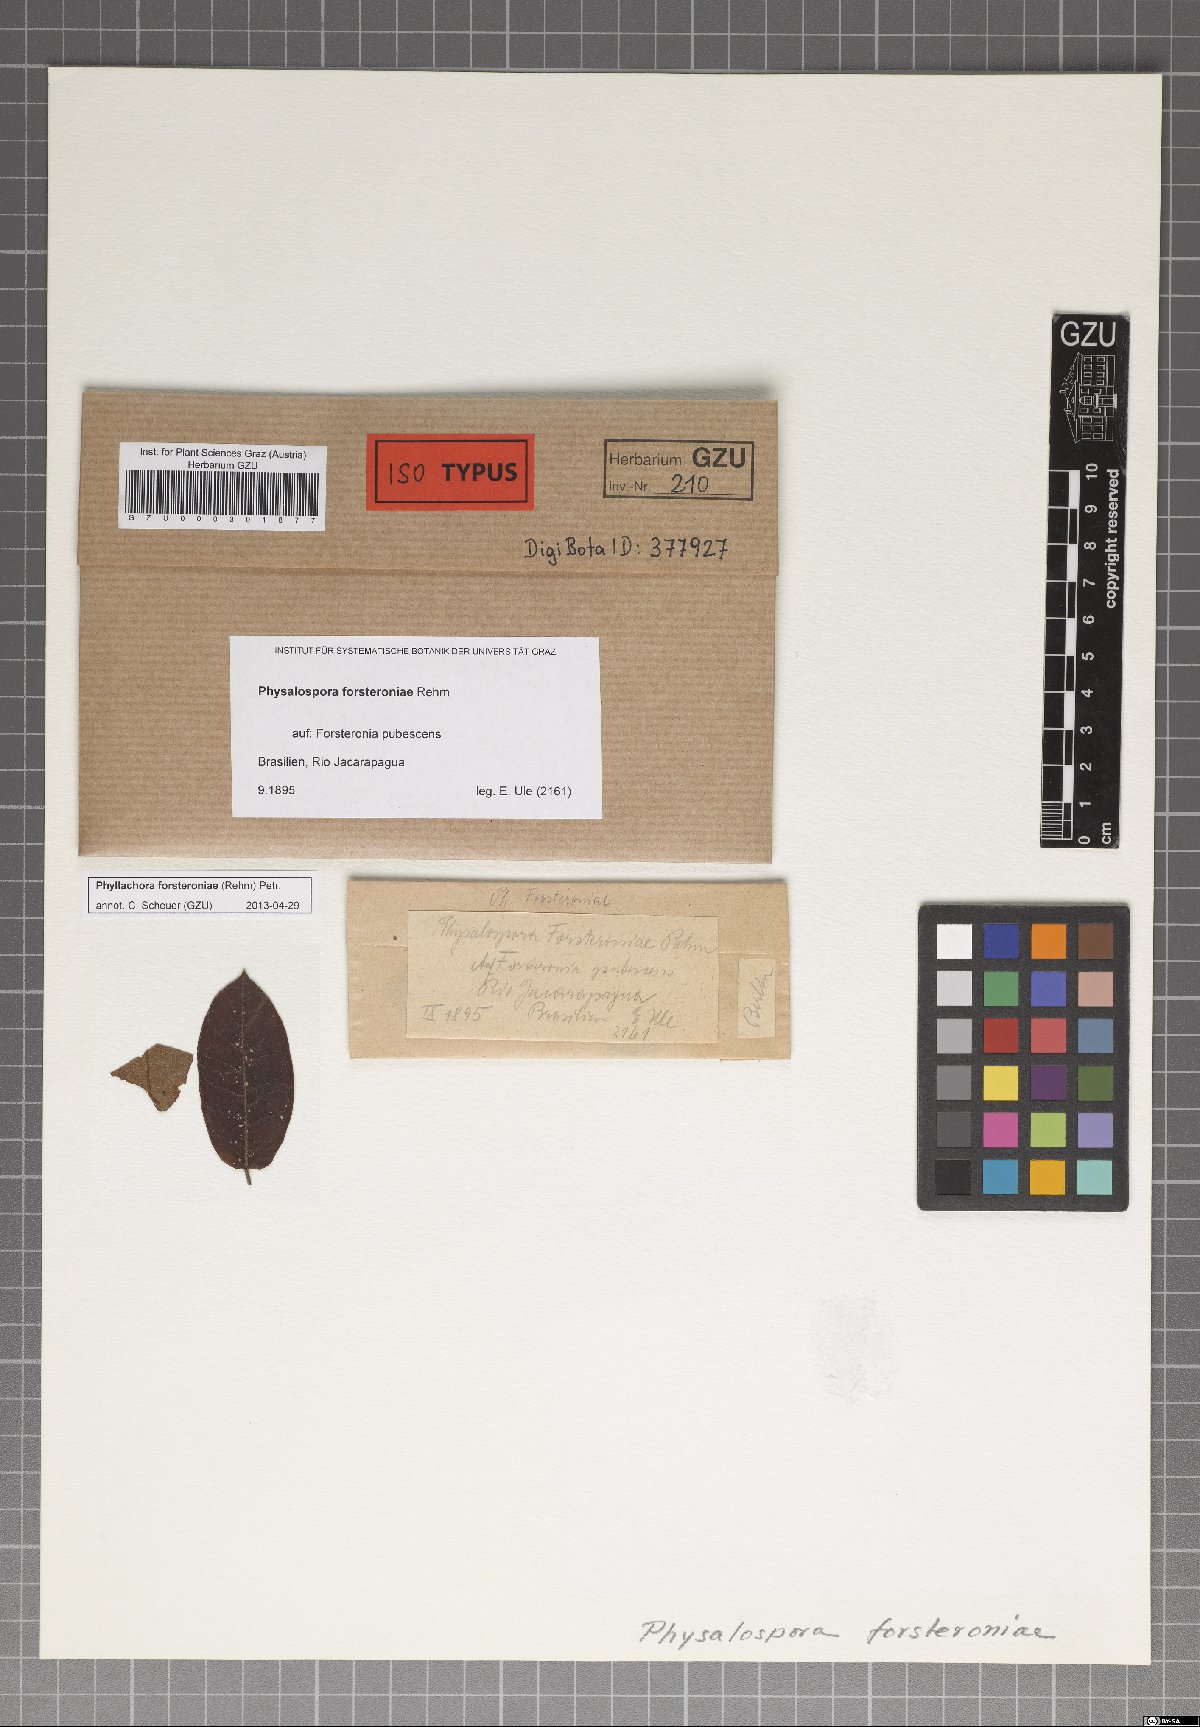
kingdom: Fungi
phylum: Ascomycota
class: Sordariomycetes
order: Phyllachorales
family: Phyllachoraceae
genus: Phyllachora
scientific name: Phyllachora forsteroniae
